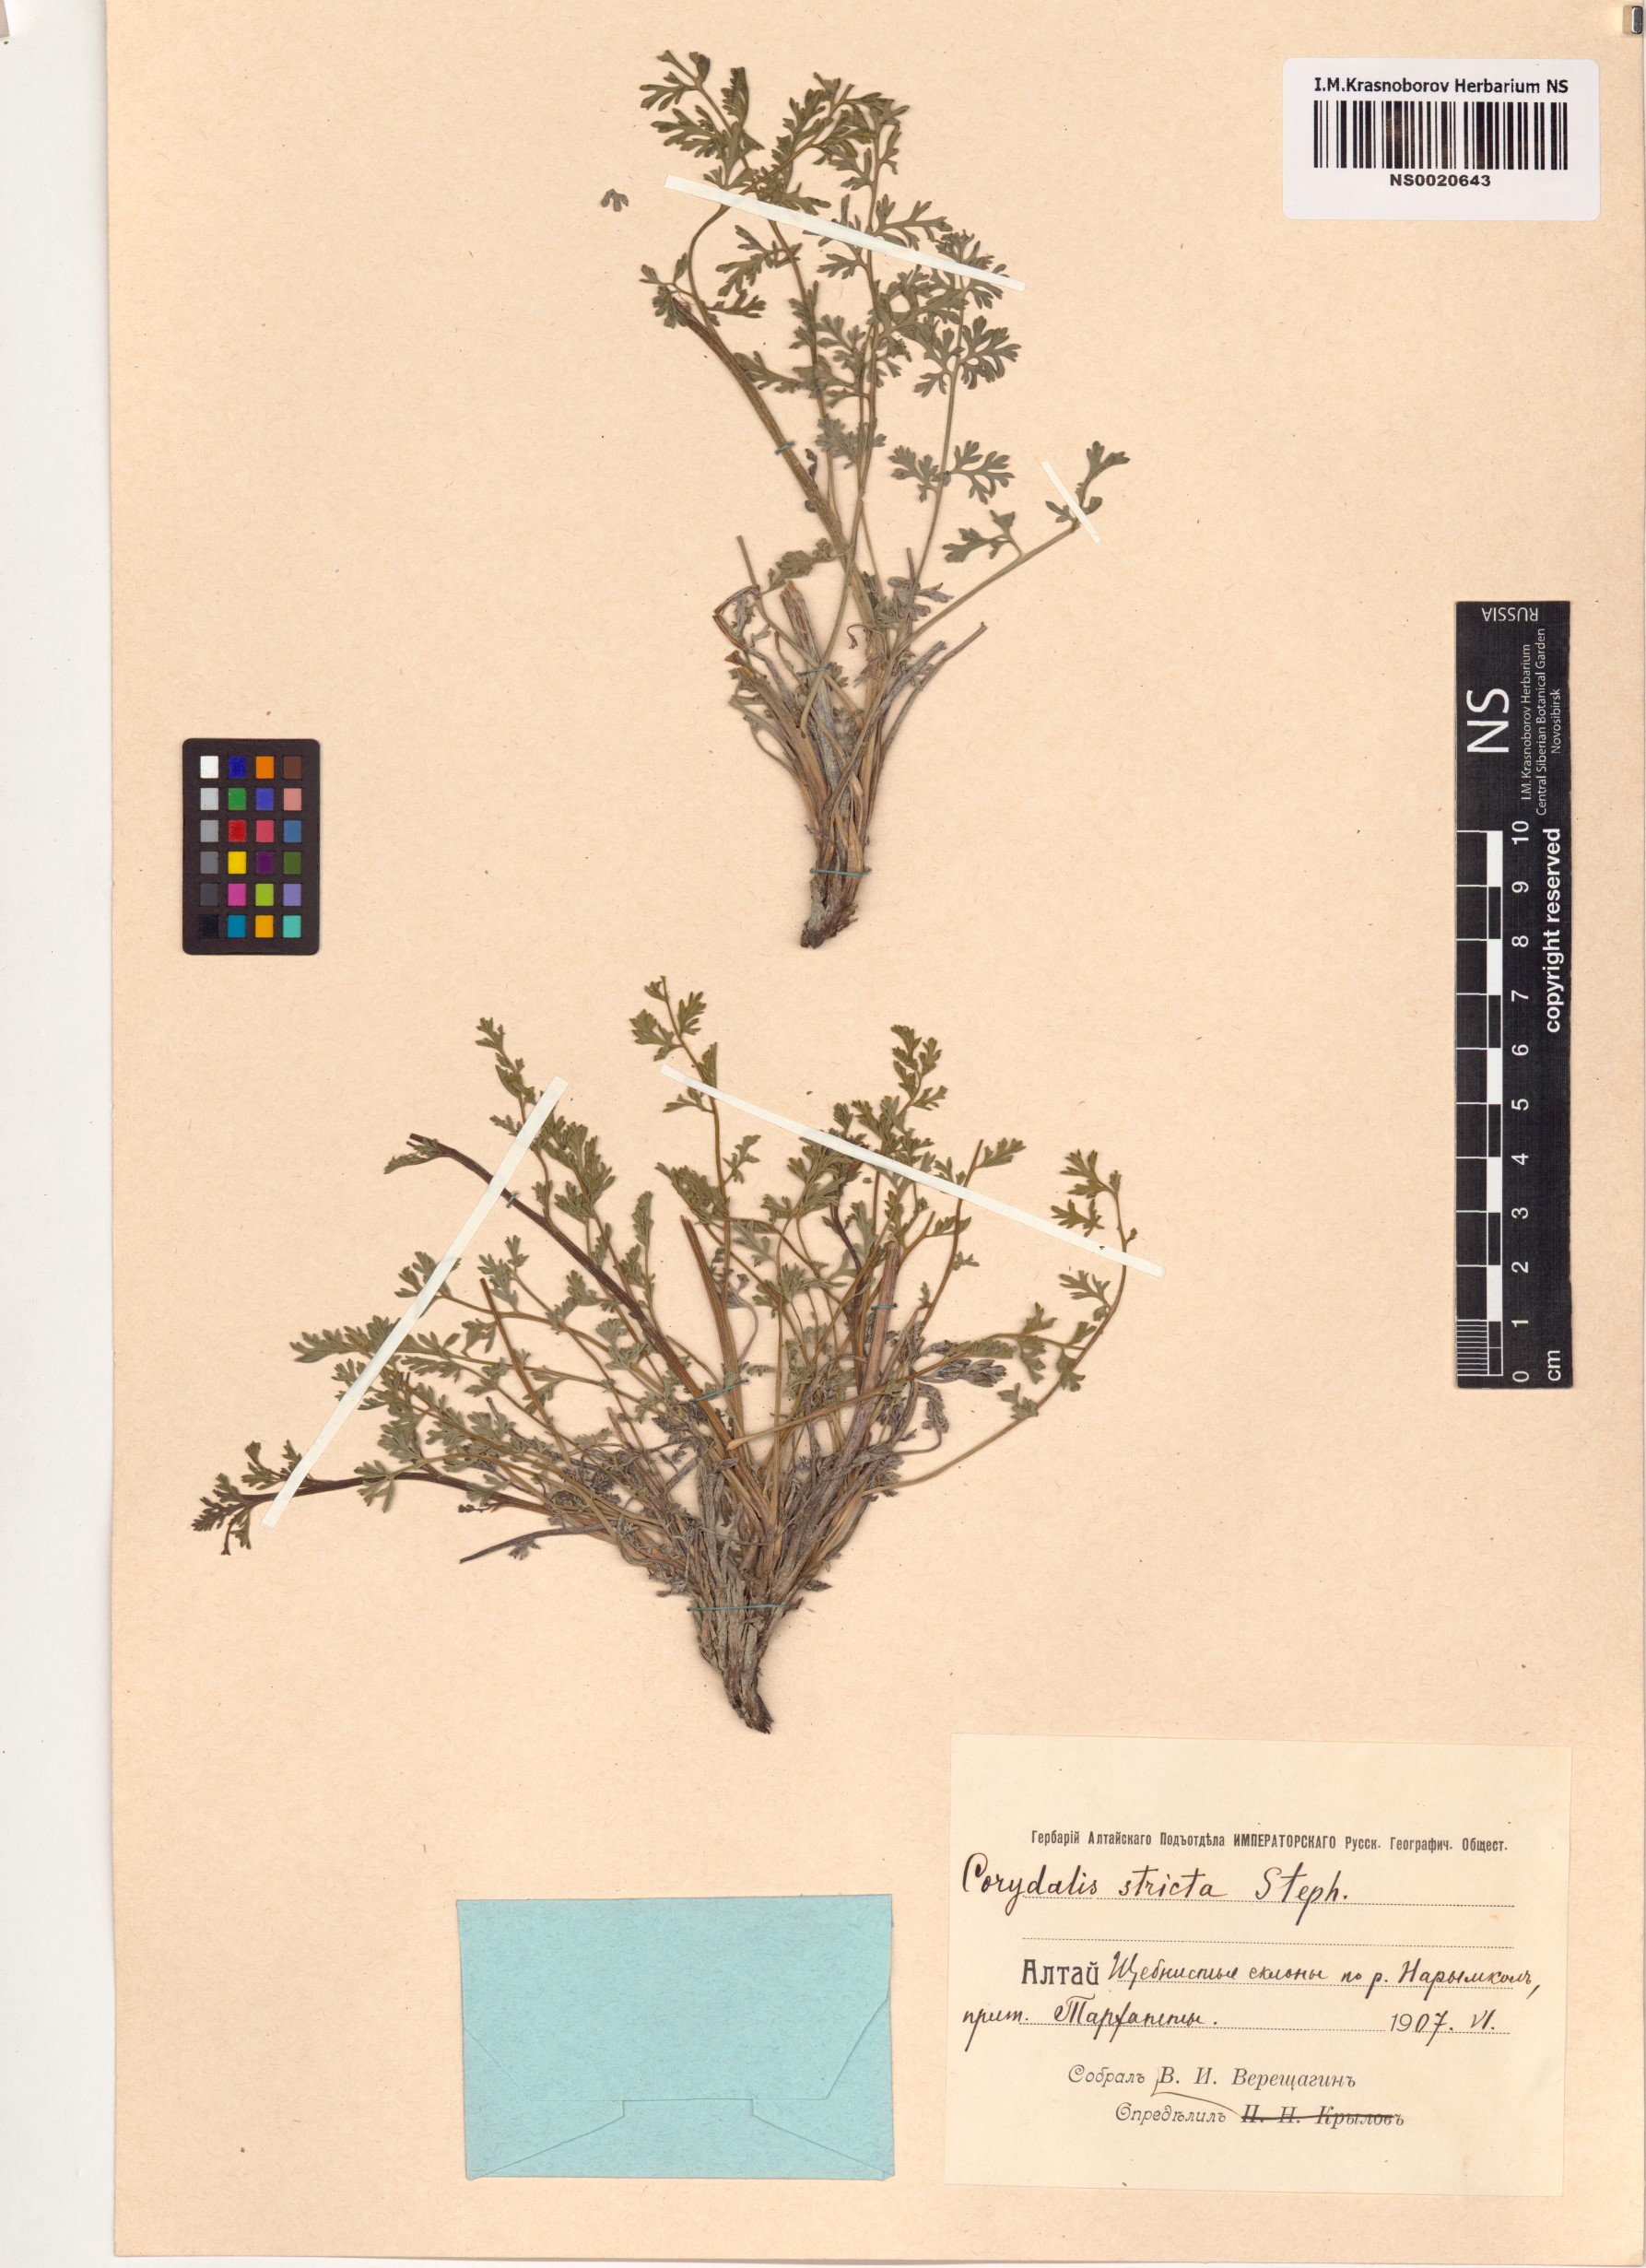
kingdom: Plantae
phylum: Tracheophyta
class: Magnoliopsida
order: Ranunculales
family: Papaveraceae
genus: Corydalis
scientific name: Corydalis stricta
